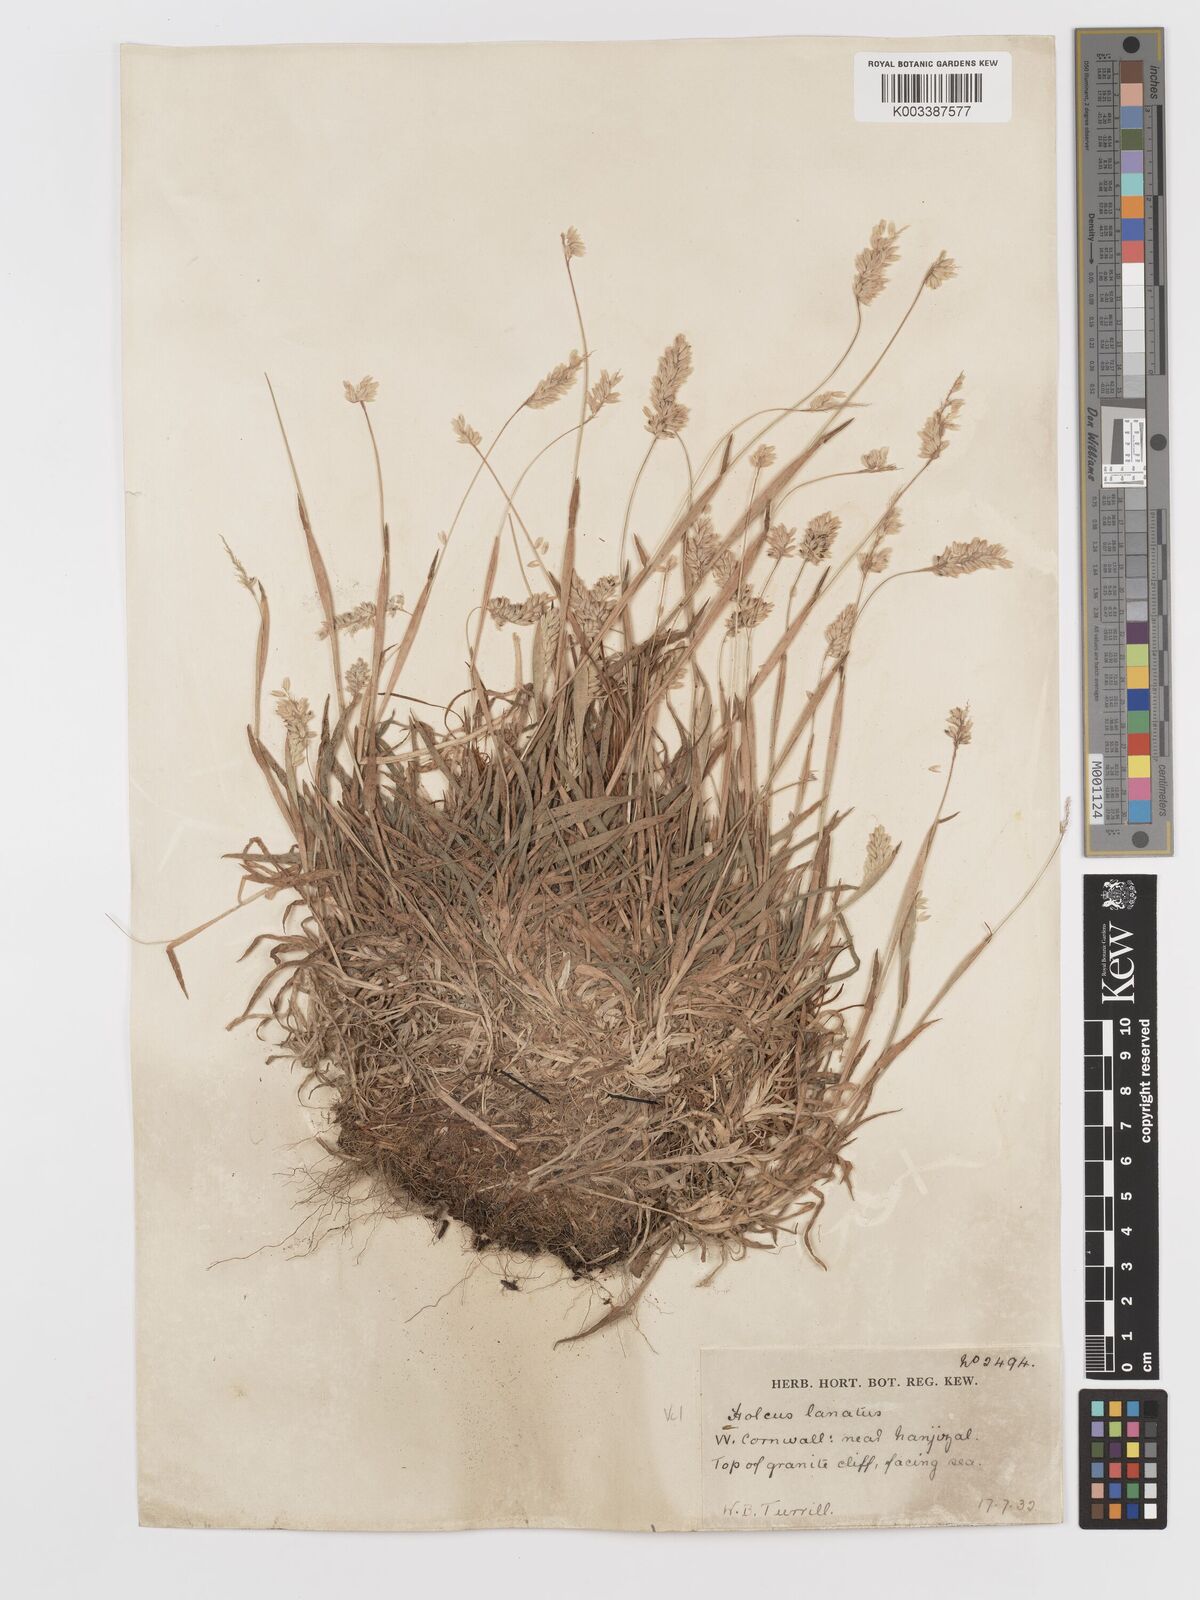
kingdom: Plantae
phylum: Tracheophyta
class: Liliopsida
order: Poales
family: Poaceae
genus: Holcus
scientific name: Holcus lanatus
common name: Yorkshire-fog
